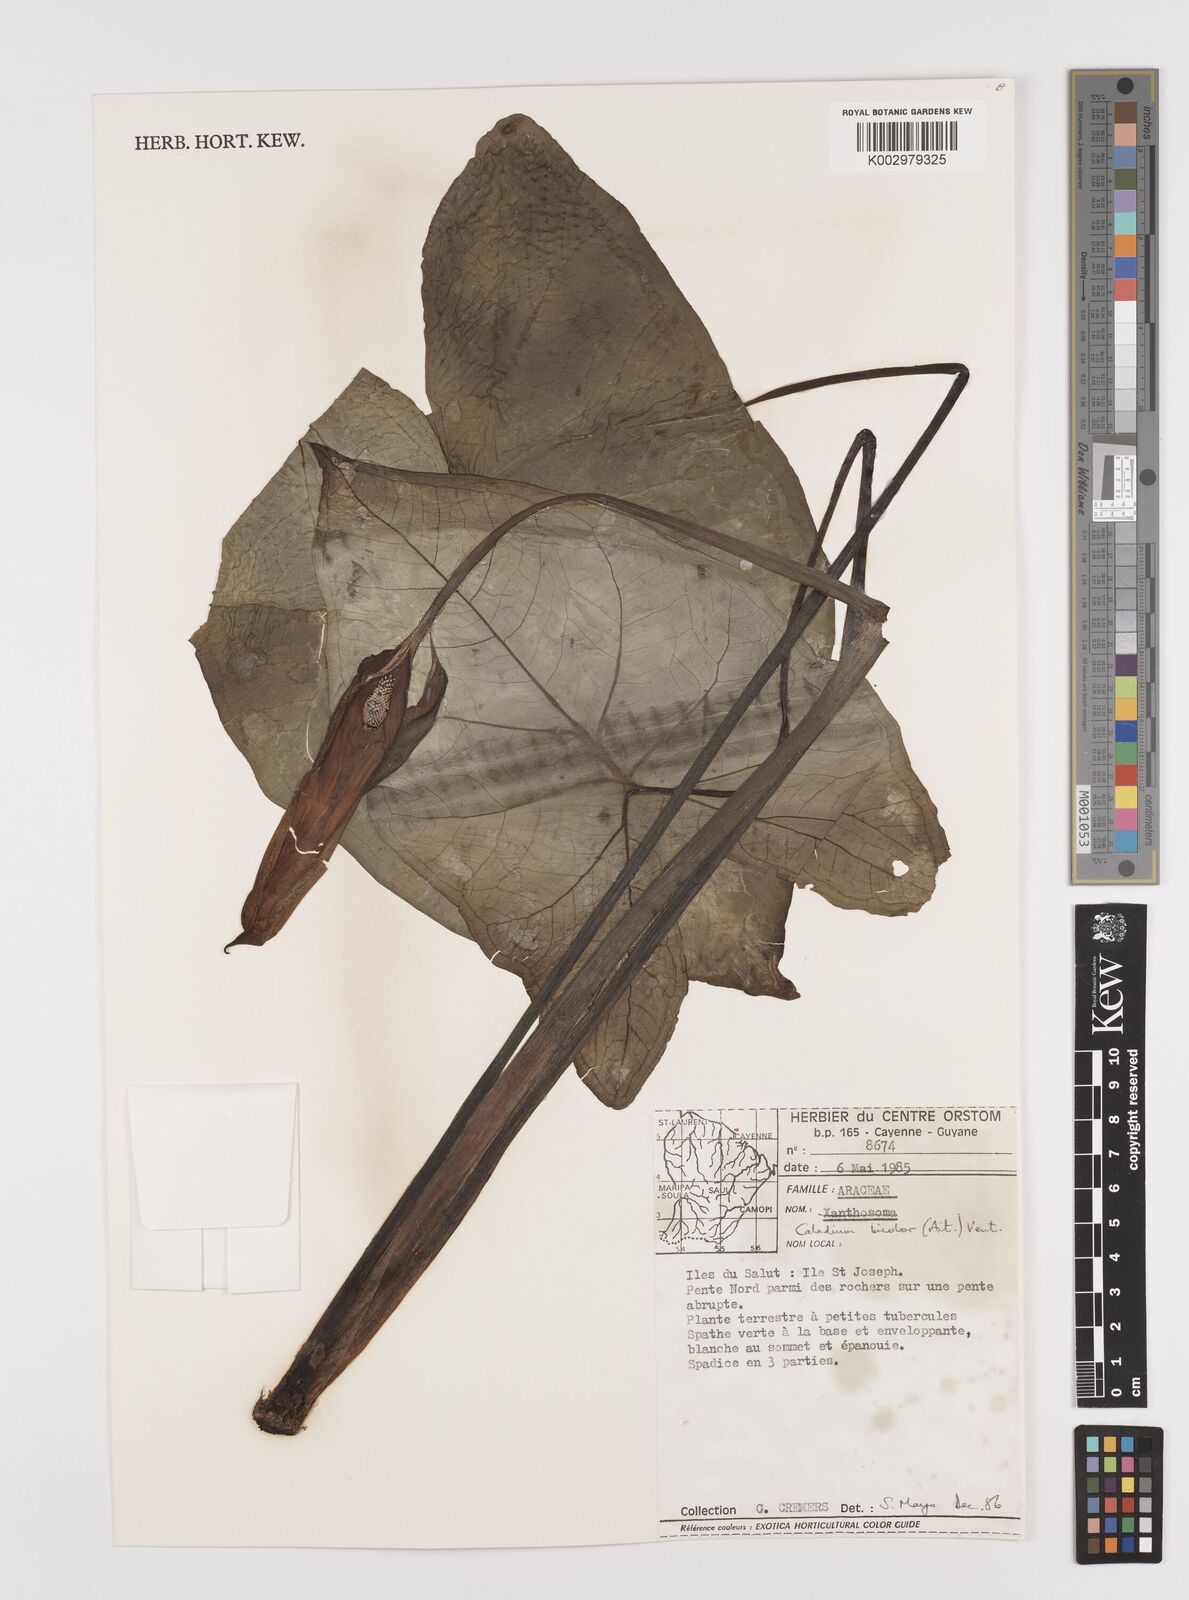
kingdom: Plantae
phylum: Tracheophyta
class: Liliopsida
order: Alismatales
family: Araceae
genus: Caladium
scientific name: Caladium bicolor
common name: Artist's pallet
